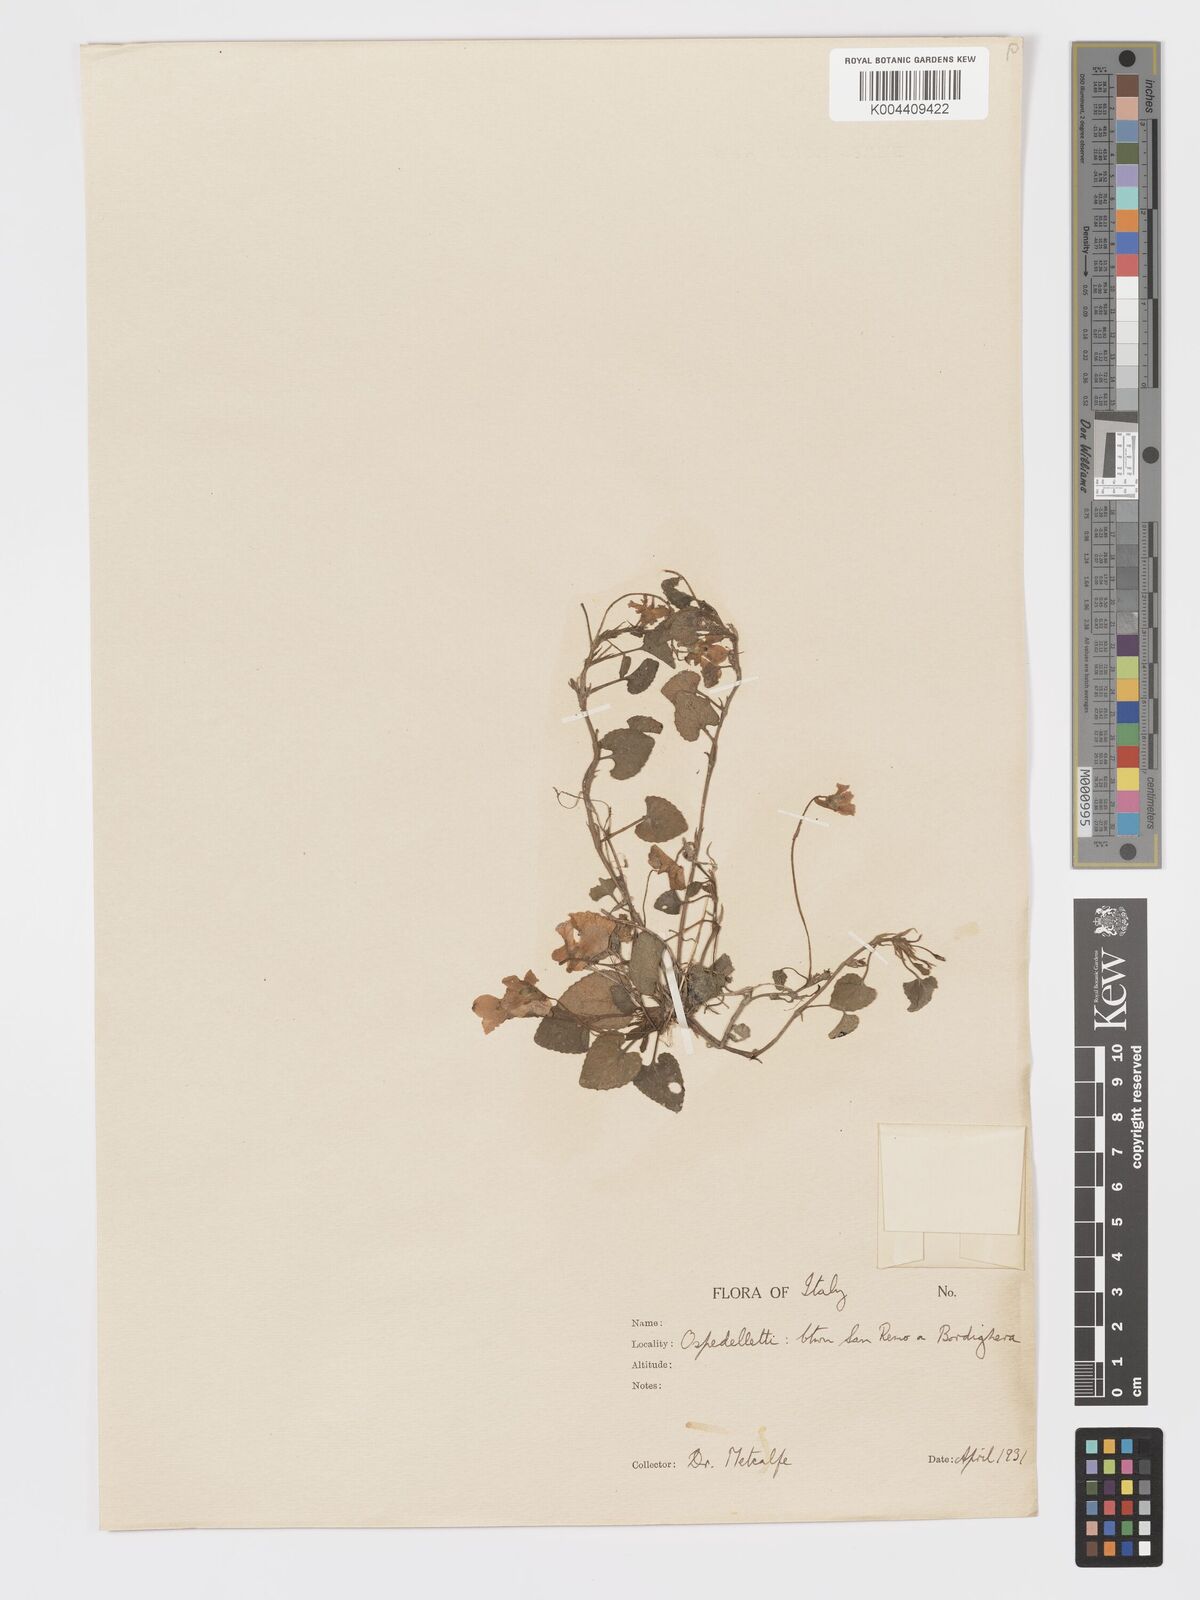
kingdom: Plantae
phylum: Tracheophyta
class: Magnoliopsida
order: Malpighiales
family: Violaceae
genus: Viola
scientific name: Viola alba
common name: White violet
